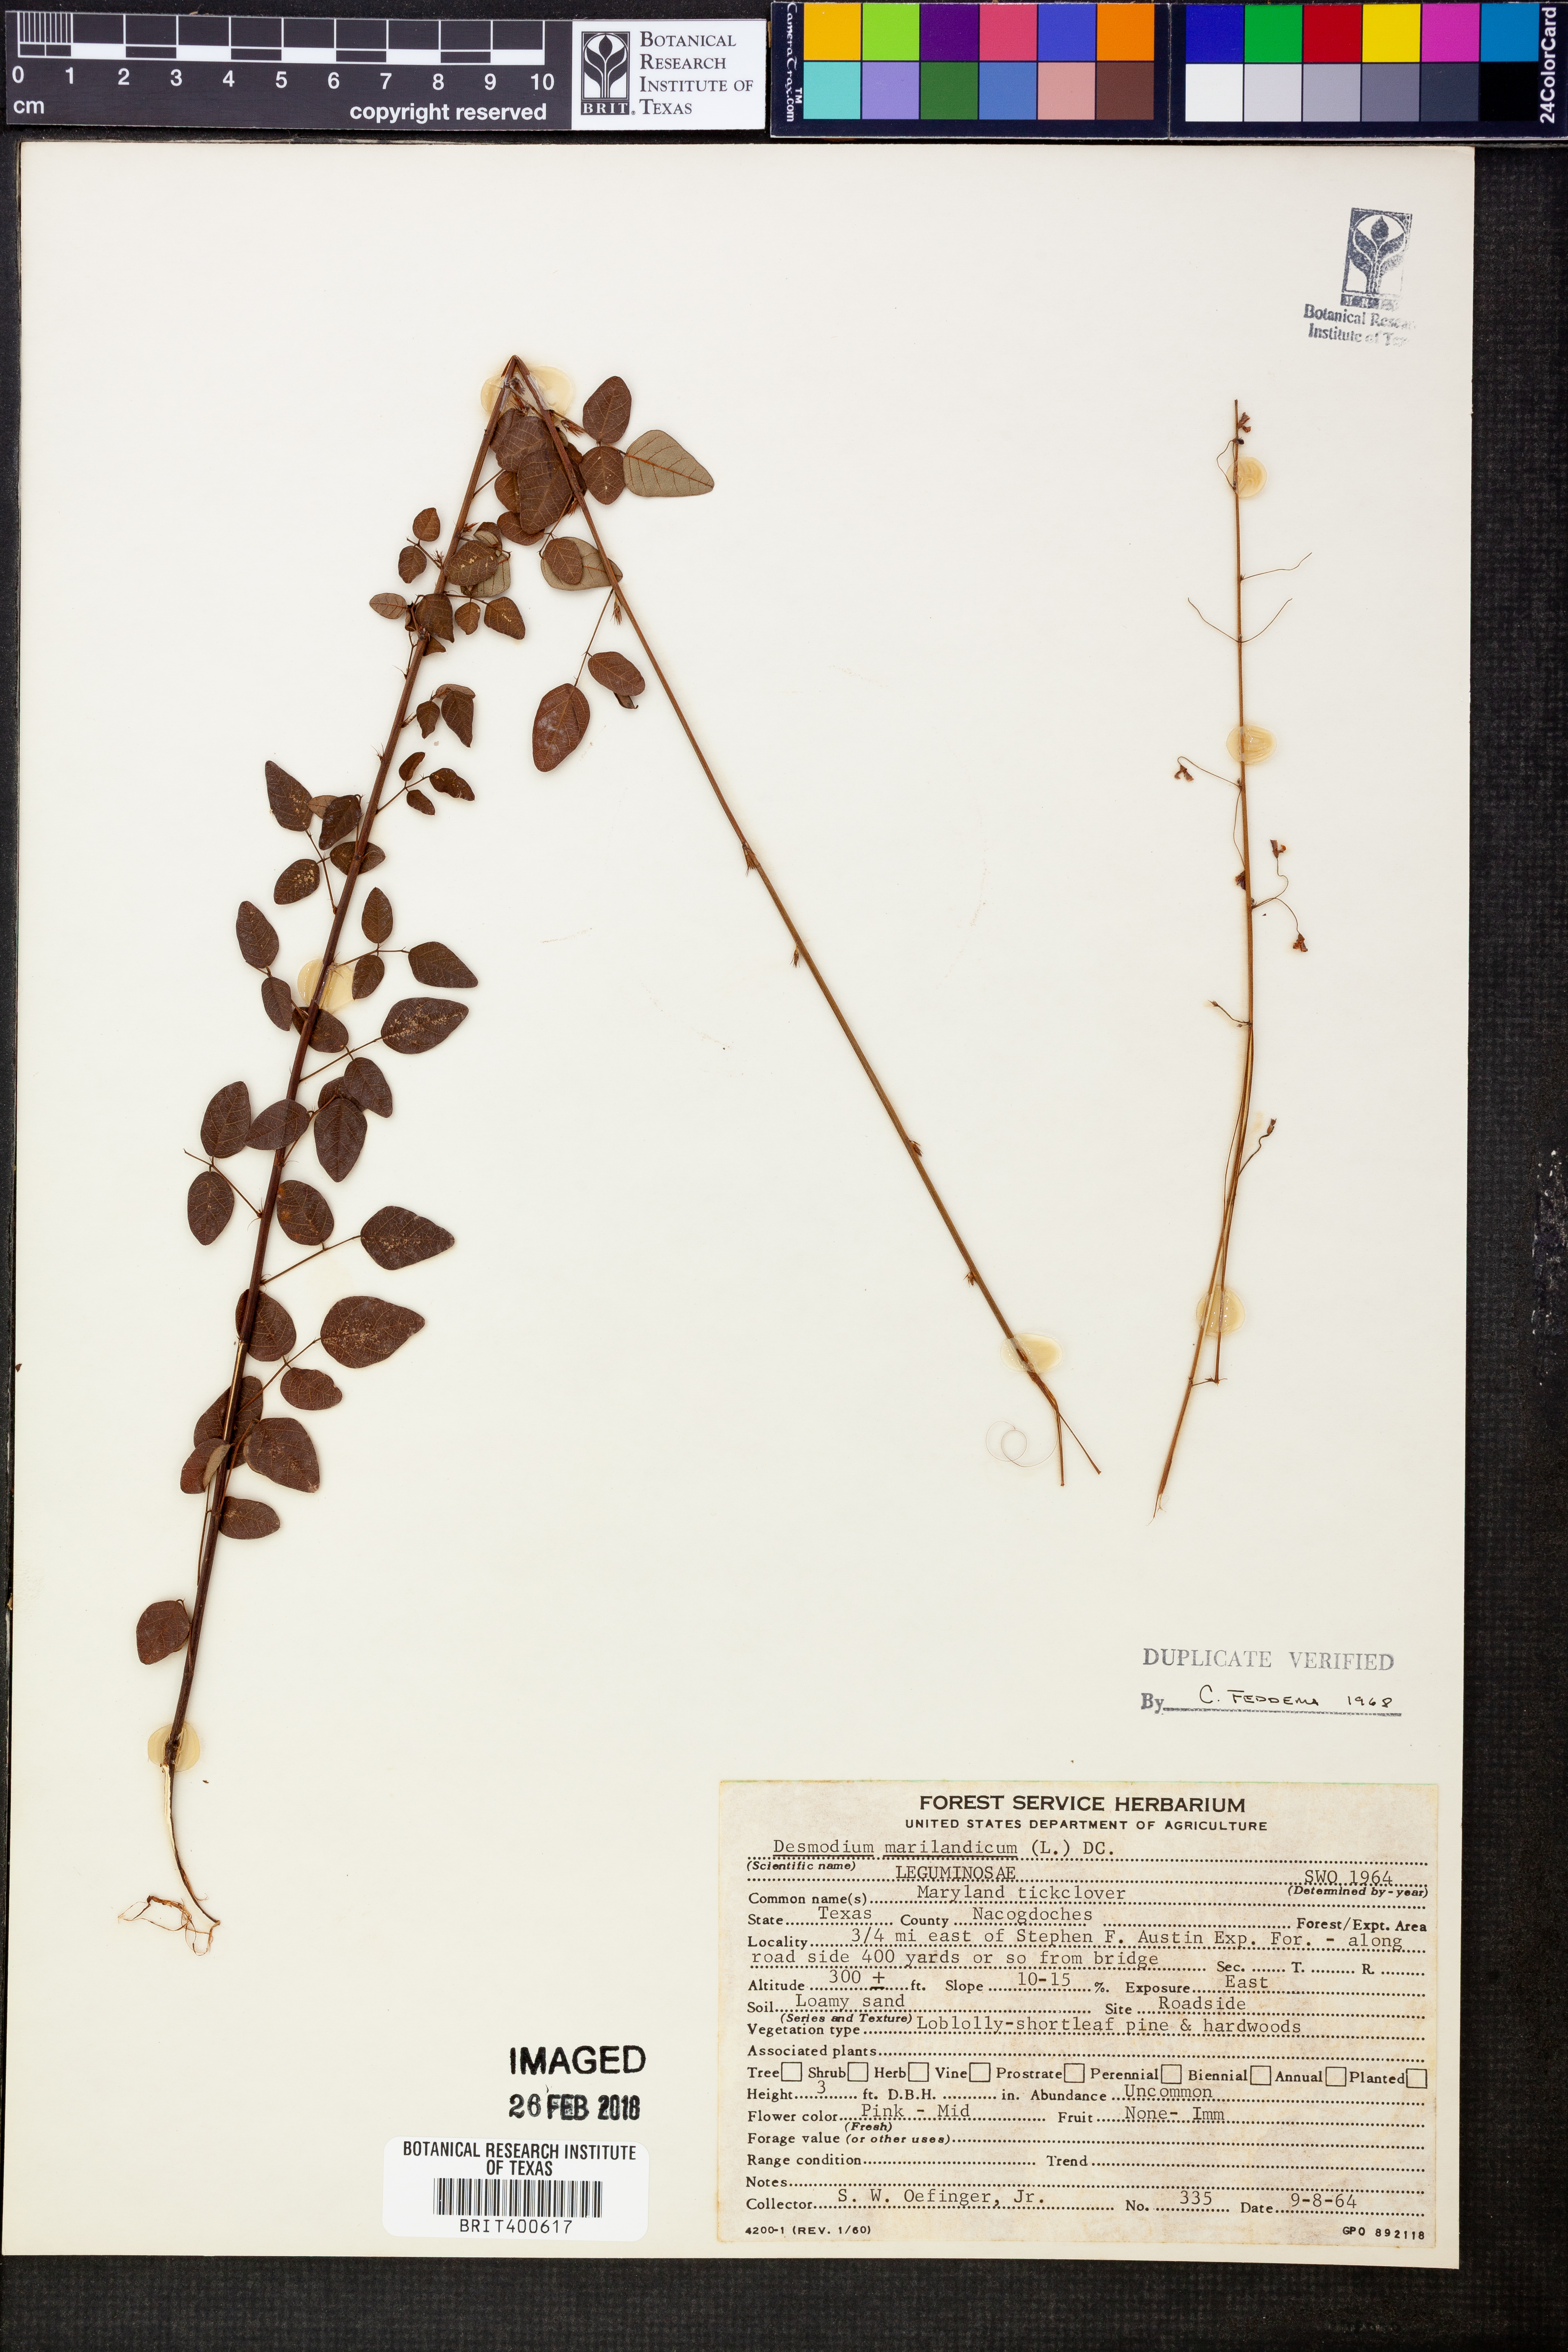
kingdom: Plantae
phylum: Tracheophyta
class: Magnoliopsida
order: Fabales
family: Fabaceae
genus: Desmodium
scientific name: Desmodium marilandicum
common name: Maryland tick-trefoil
